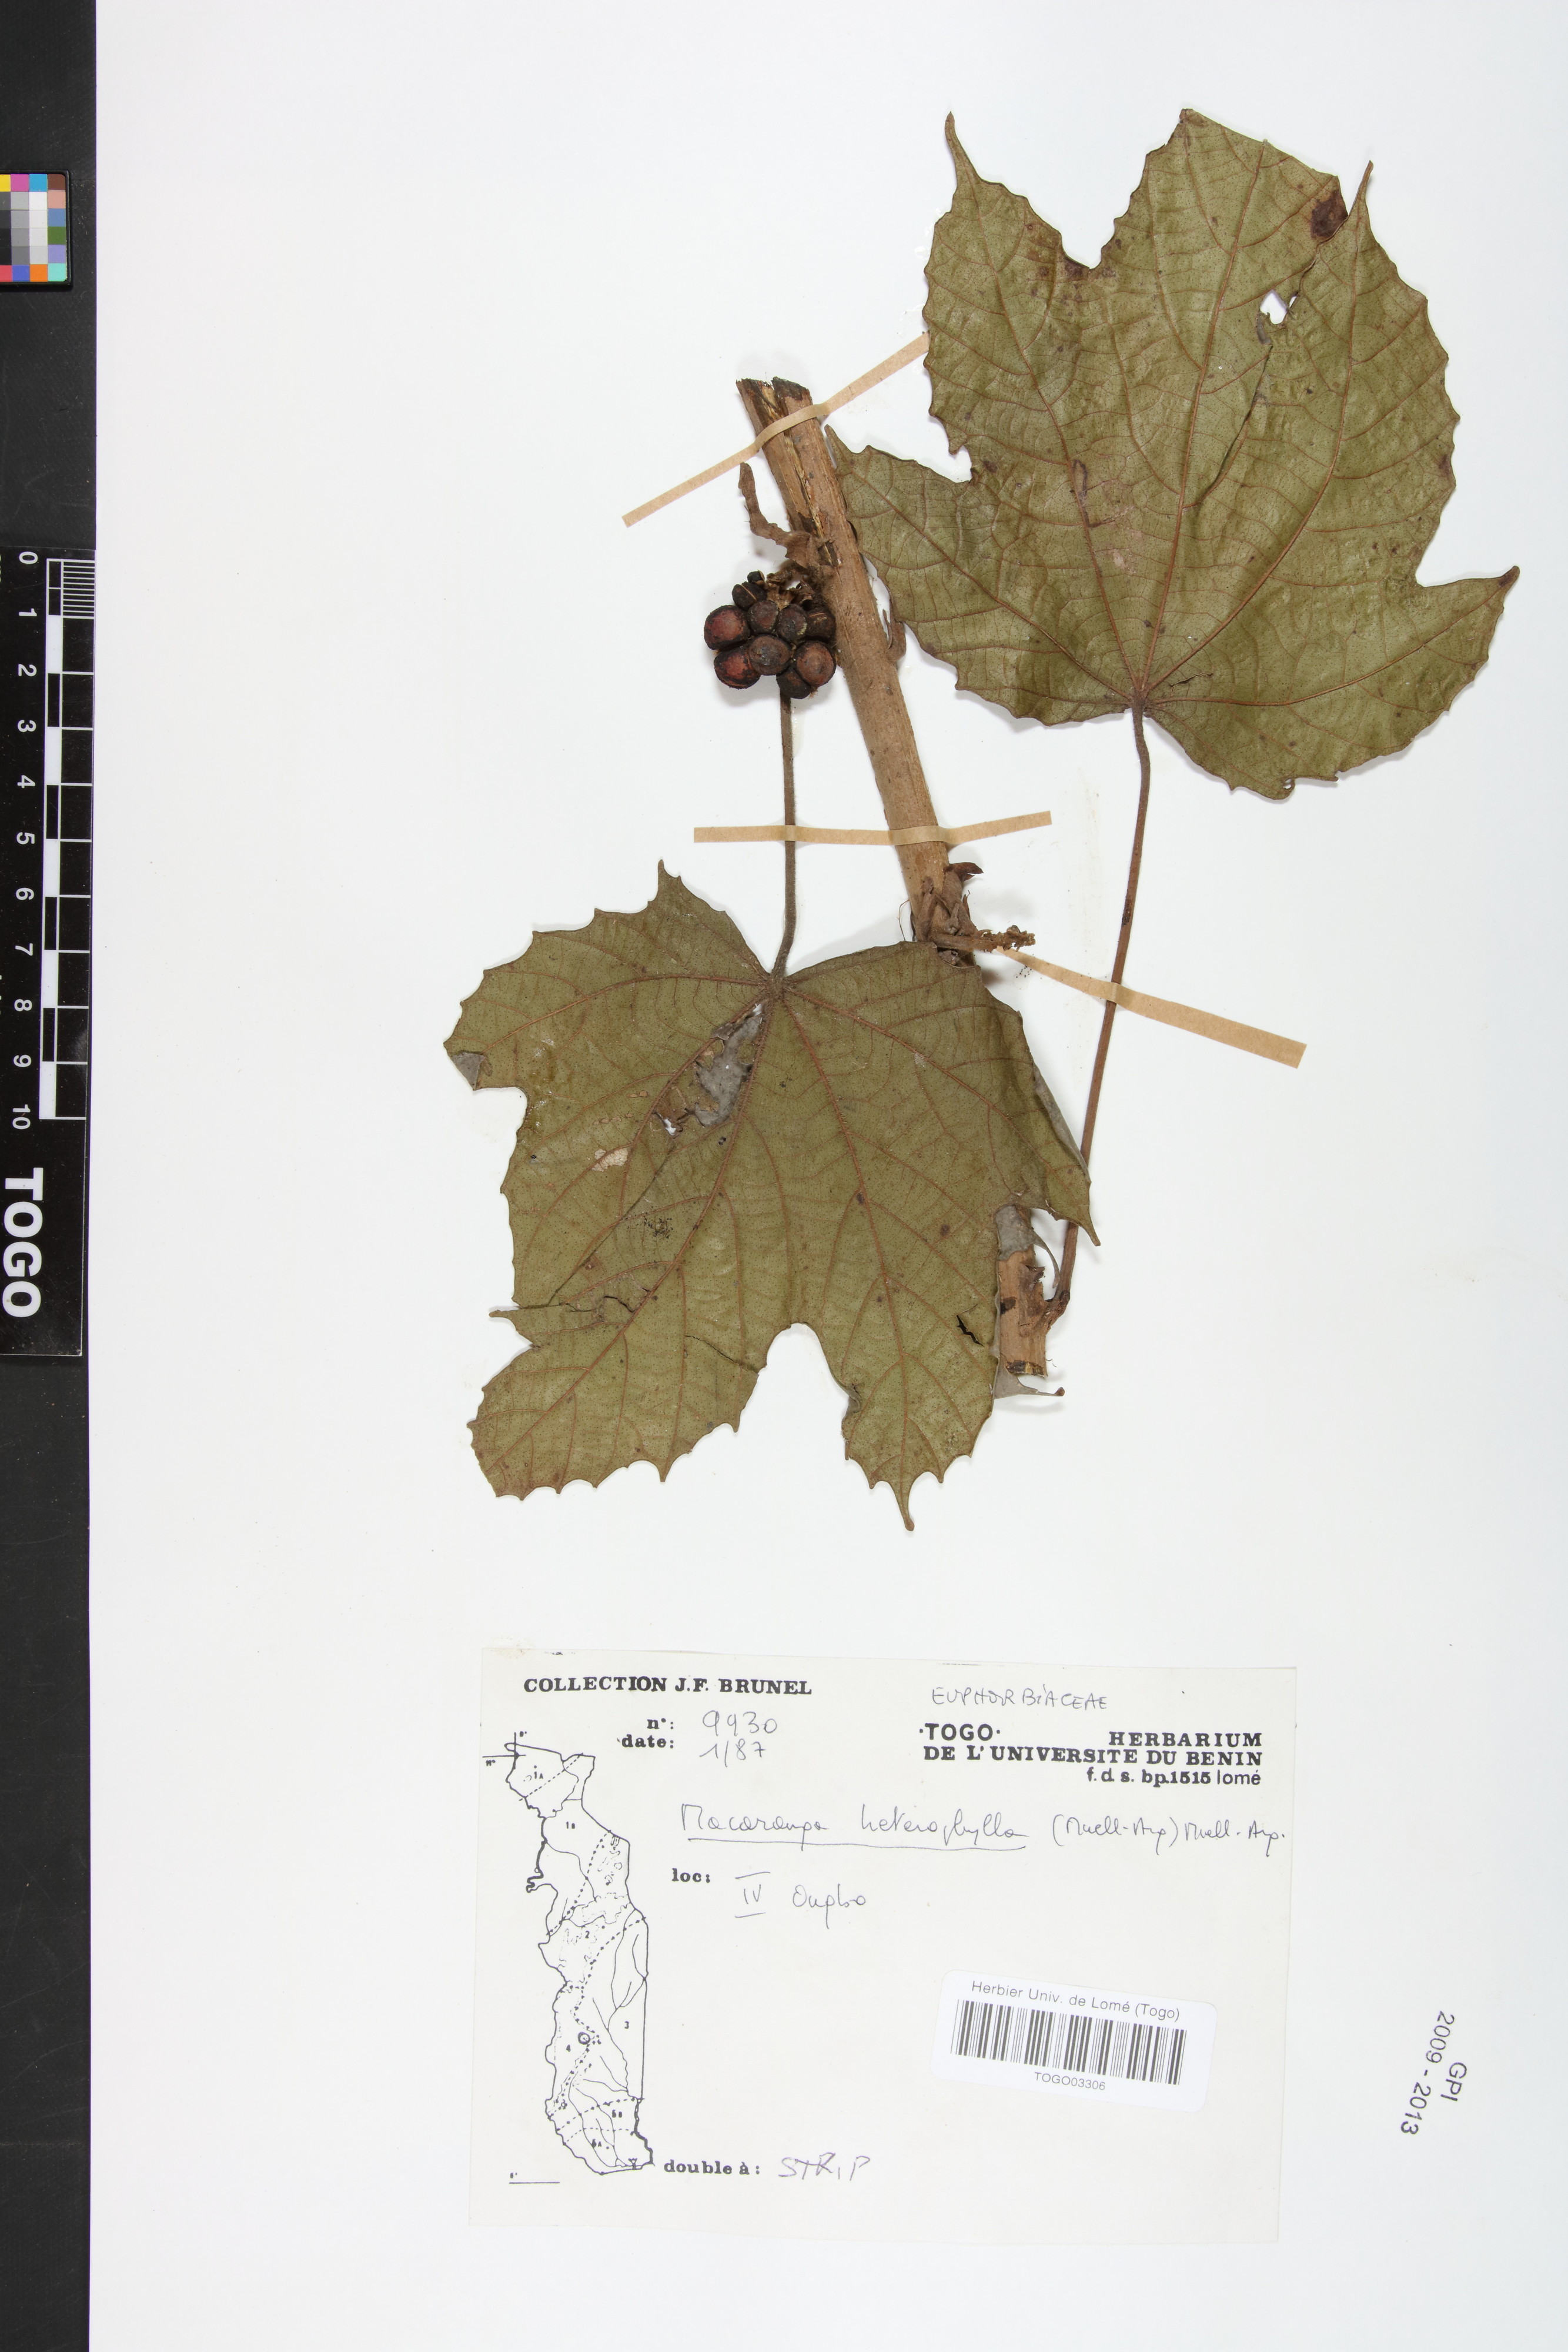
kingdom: Plantae
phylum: Tracheophyta
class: Magnoliopsida
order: Malpighiales
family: Euphorbiaceae
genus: Macaranga
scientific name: Macaranga heterophylla
